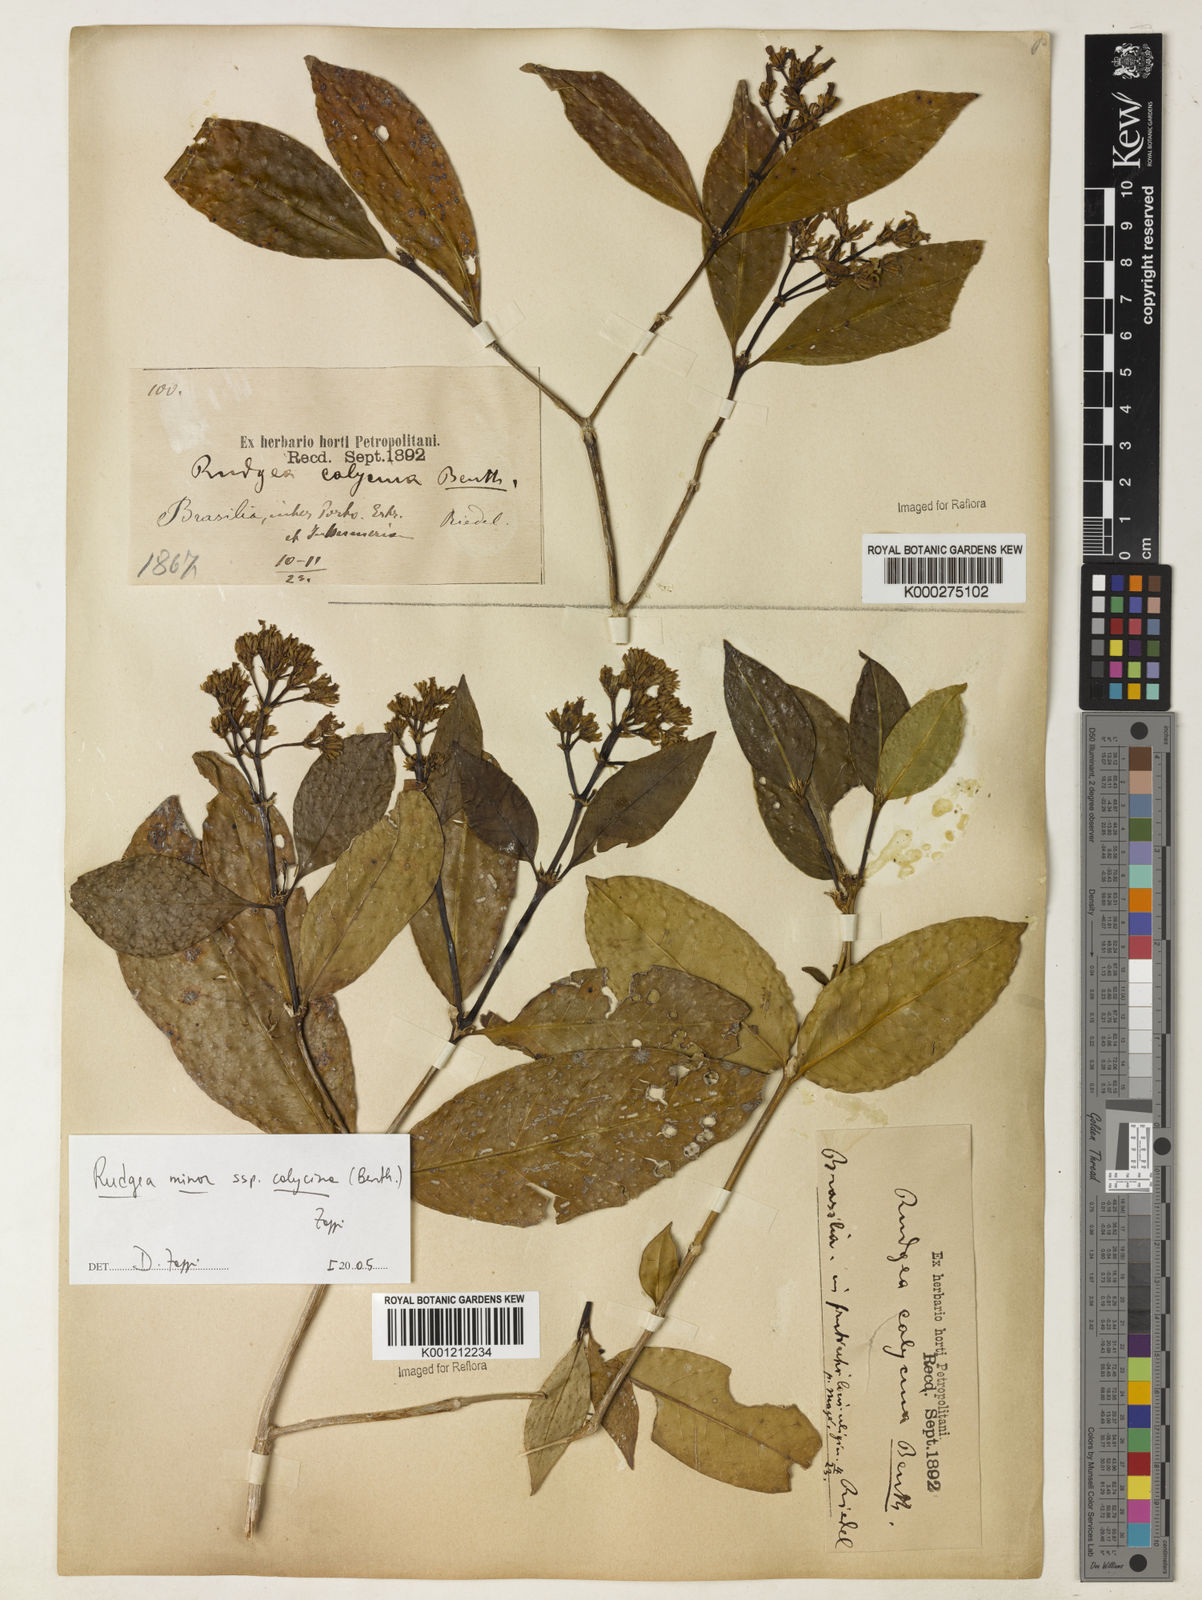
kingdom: Plantae
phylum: Tracheophyta
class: Magnoliopsida
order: Gentianales
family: Rubiaceae
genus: Rudgea
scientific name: Rudgea minor
